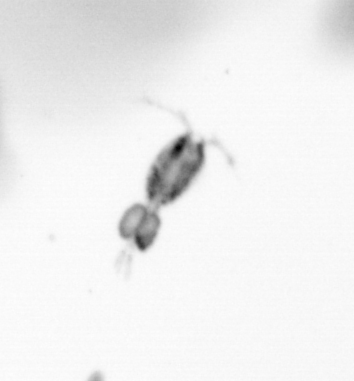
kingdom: Animalia
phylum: Arthropoda
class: Copepoda
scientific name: Copepoda
